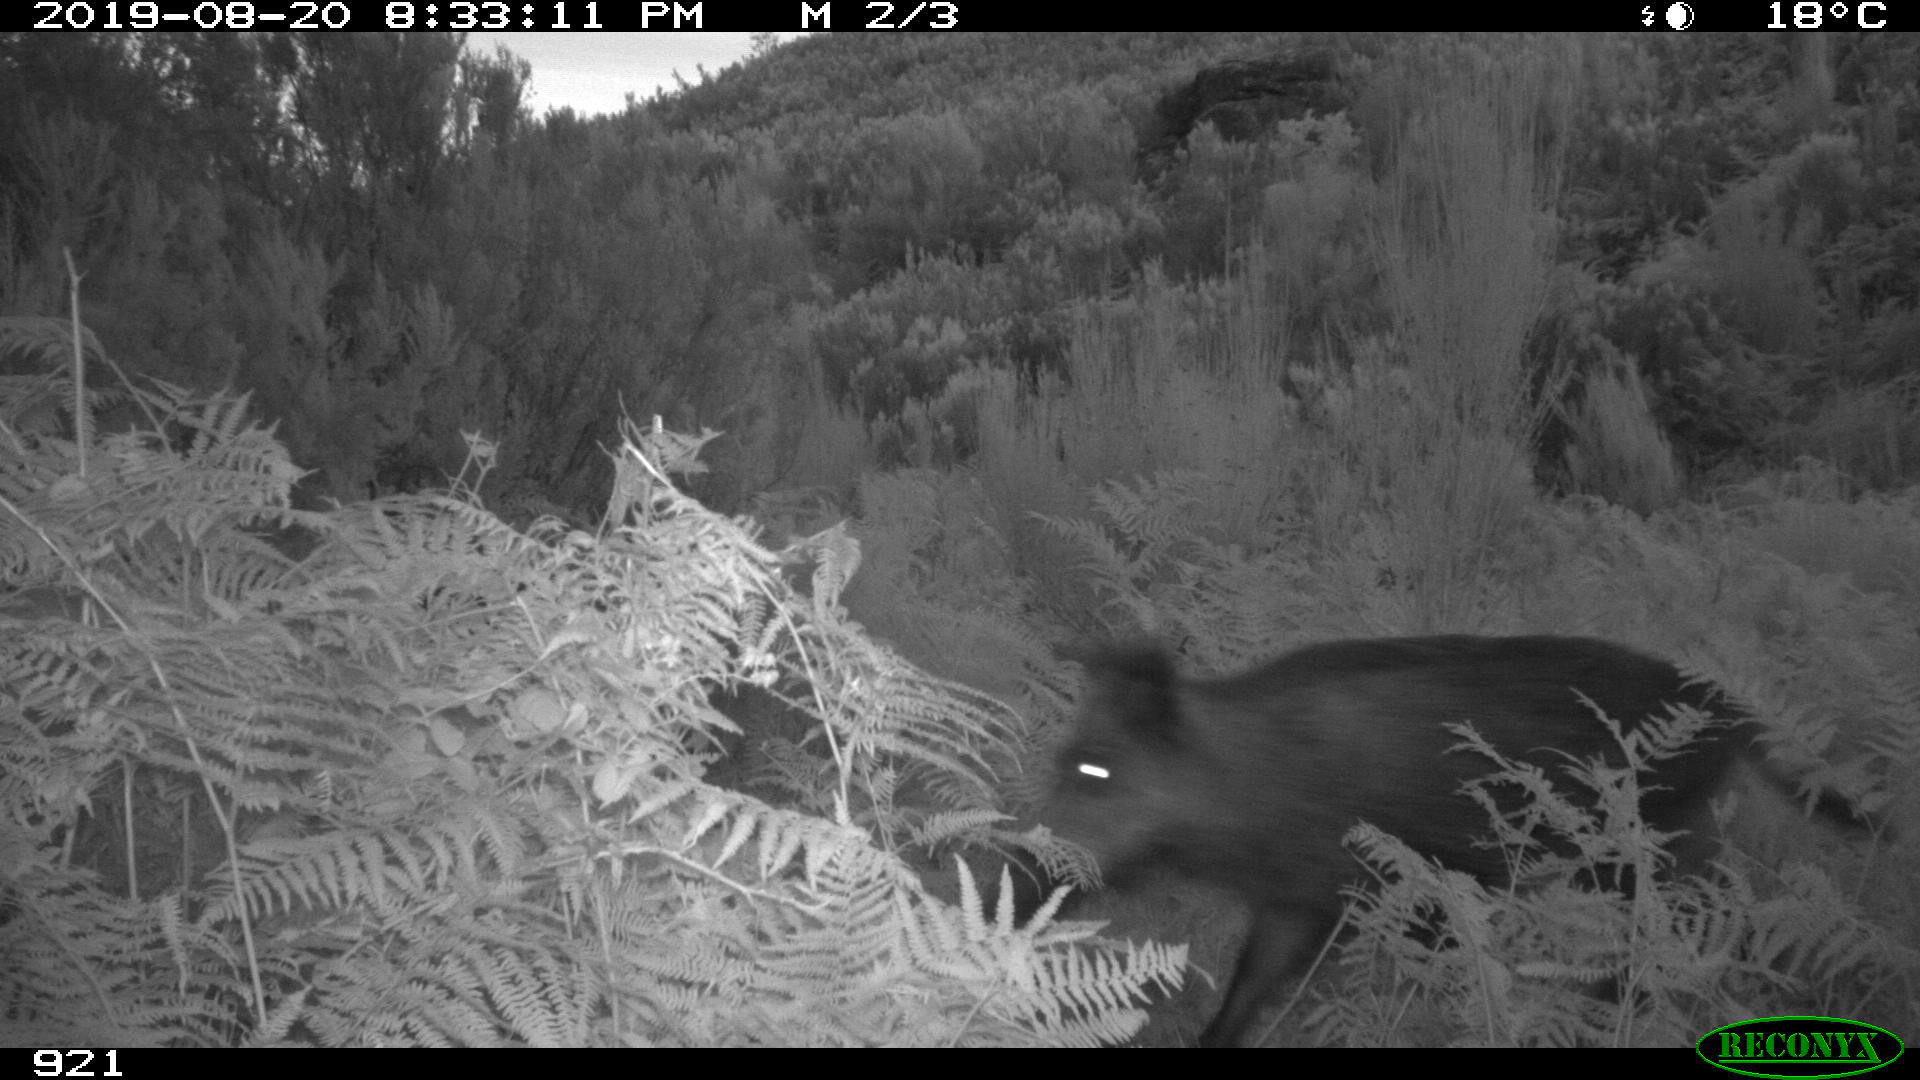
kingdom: Animalia
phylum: Chordata
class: Mammalia
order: Artiodactyla
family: Suidae
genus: Sus
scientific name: Sus scrofa
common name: Wild boar
